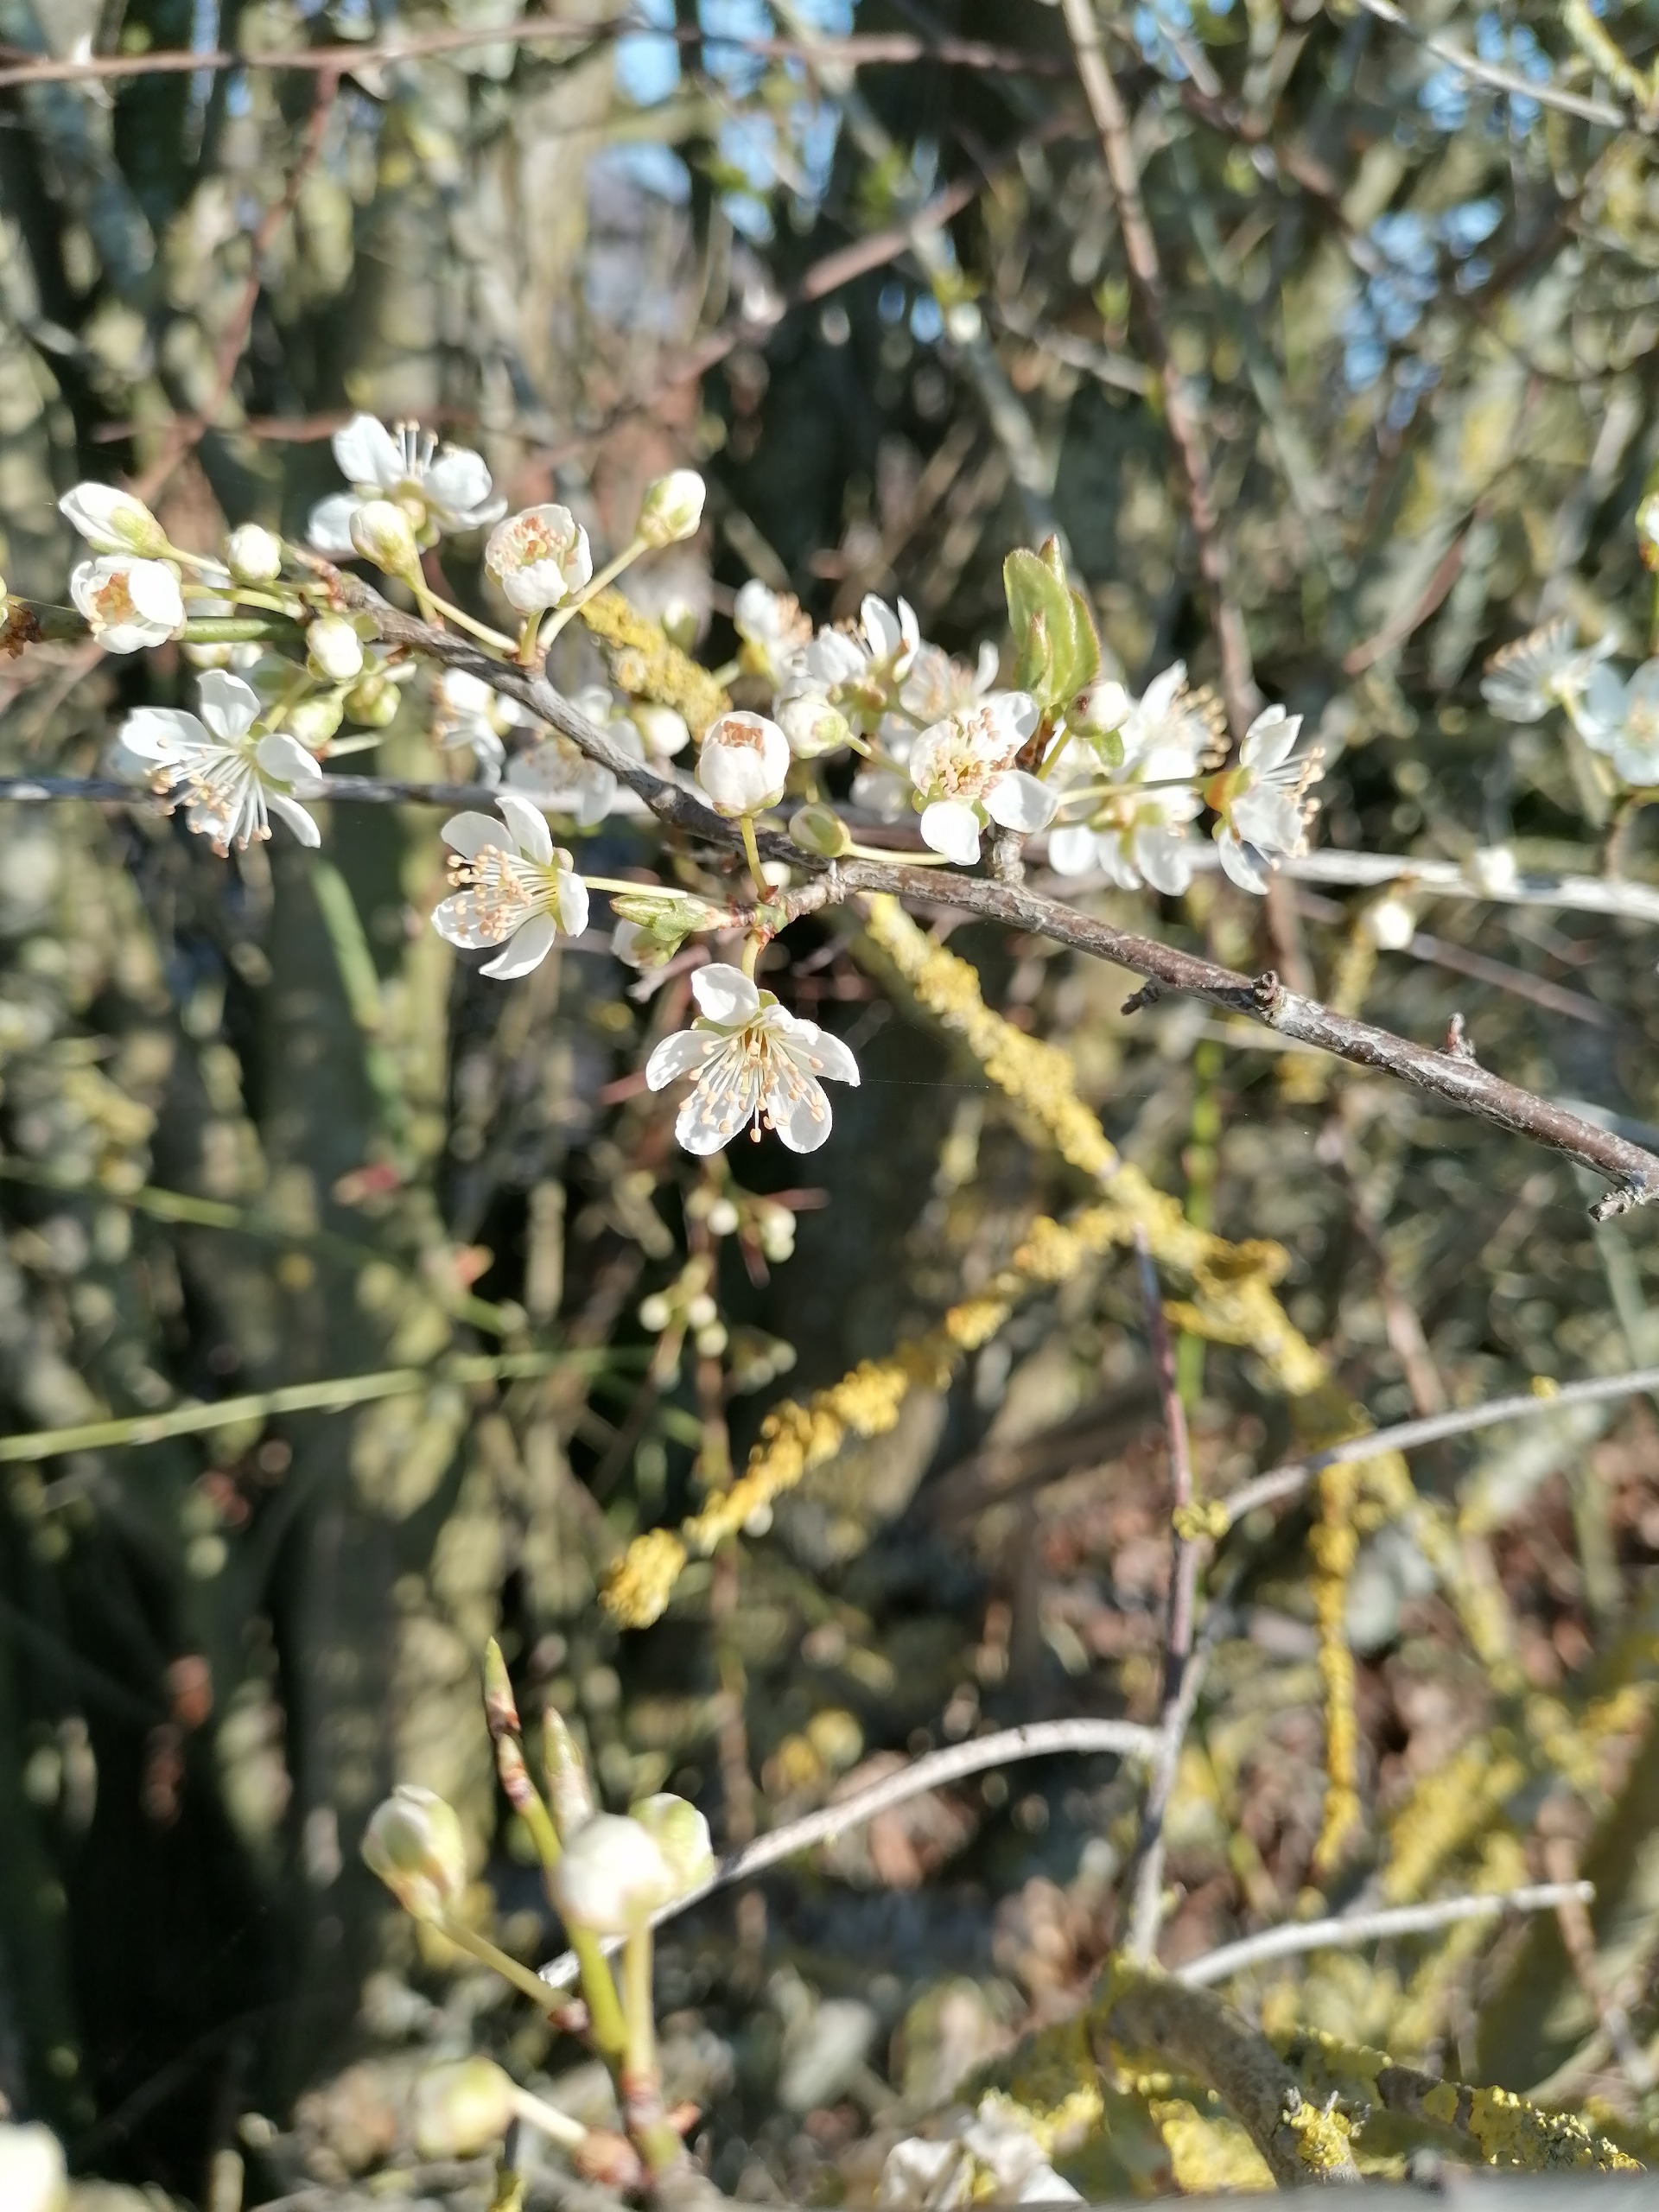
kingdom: Plantae
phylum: Tracheophyta
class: Magnoliopsida
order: Rosales
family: Rosaceae
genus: Prunus
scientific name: Prunus cerasifera
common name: Mirabel
